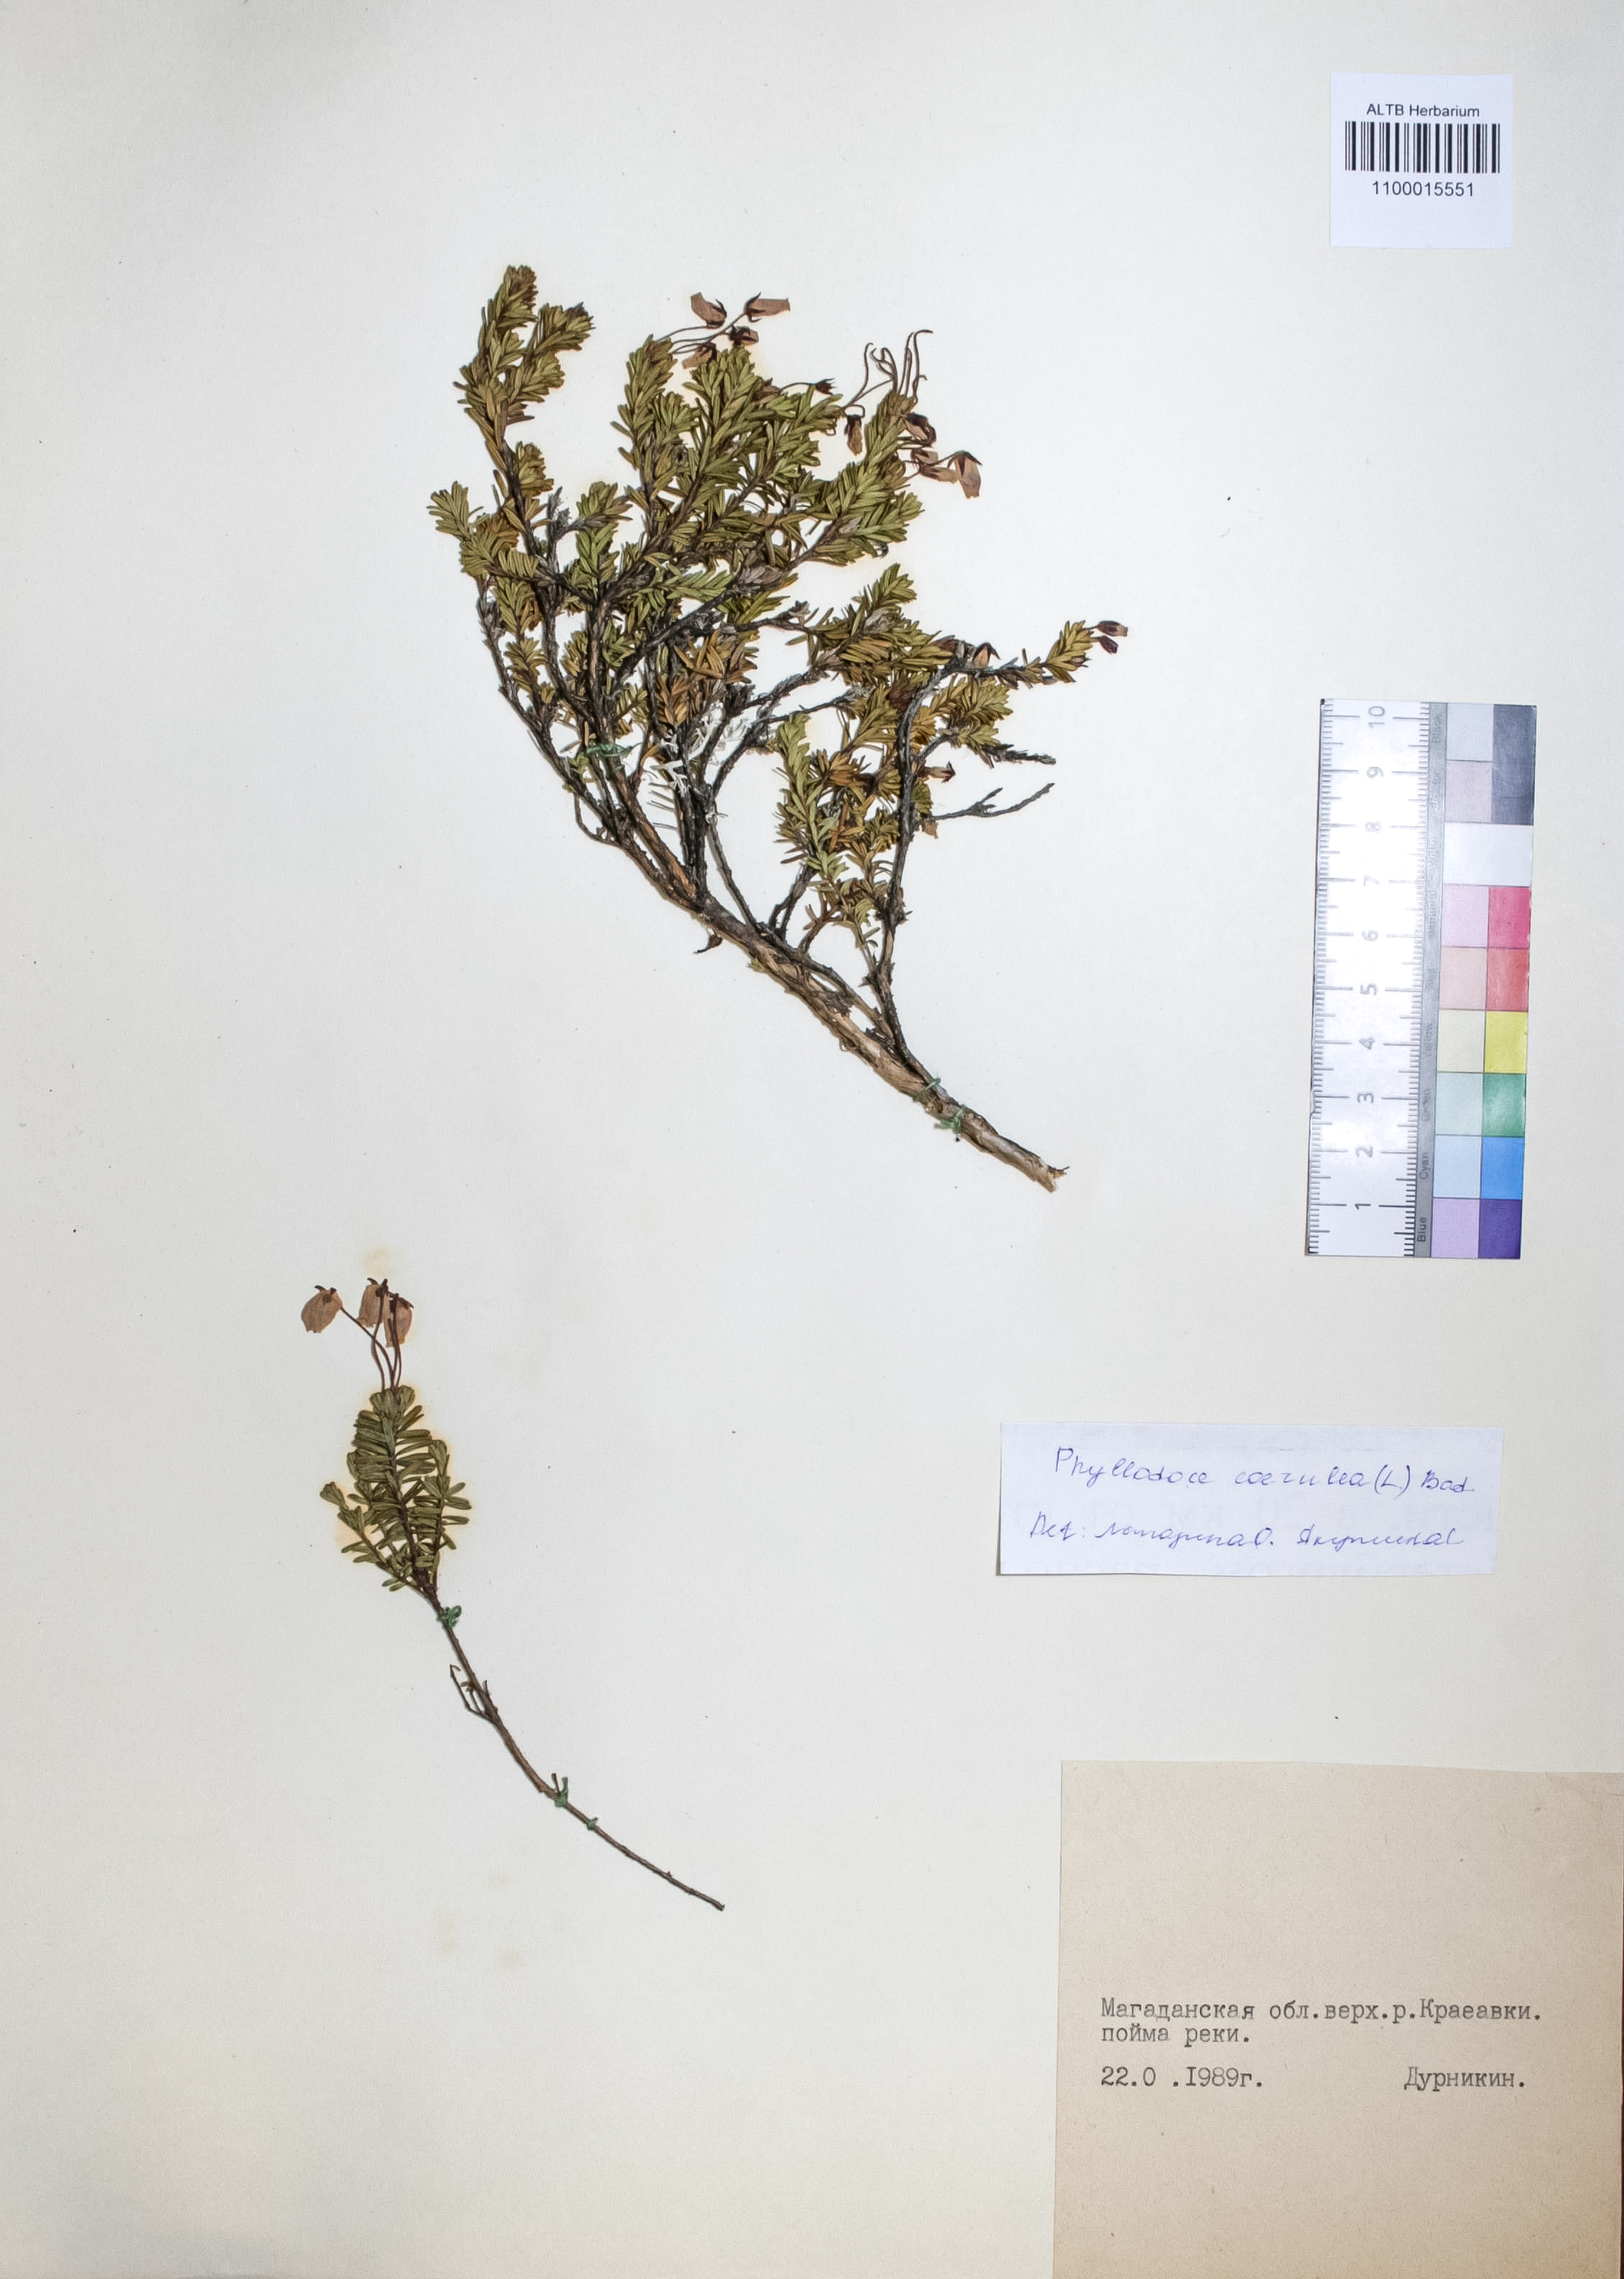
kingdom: Plantae
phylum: Tracheophyta
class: Magnoliopsida
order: Ericales
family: Ericaceae
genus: Phyllodoce
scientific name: Phyllodoce caerulea
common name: Blue heath
